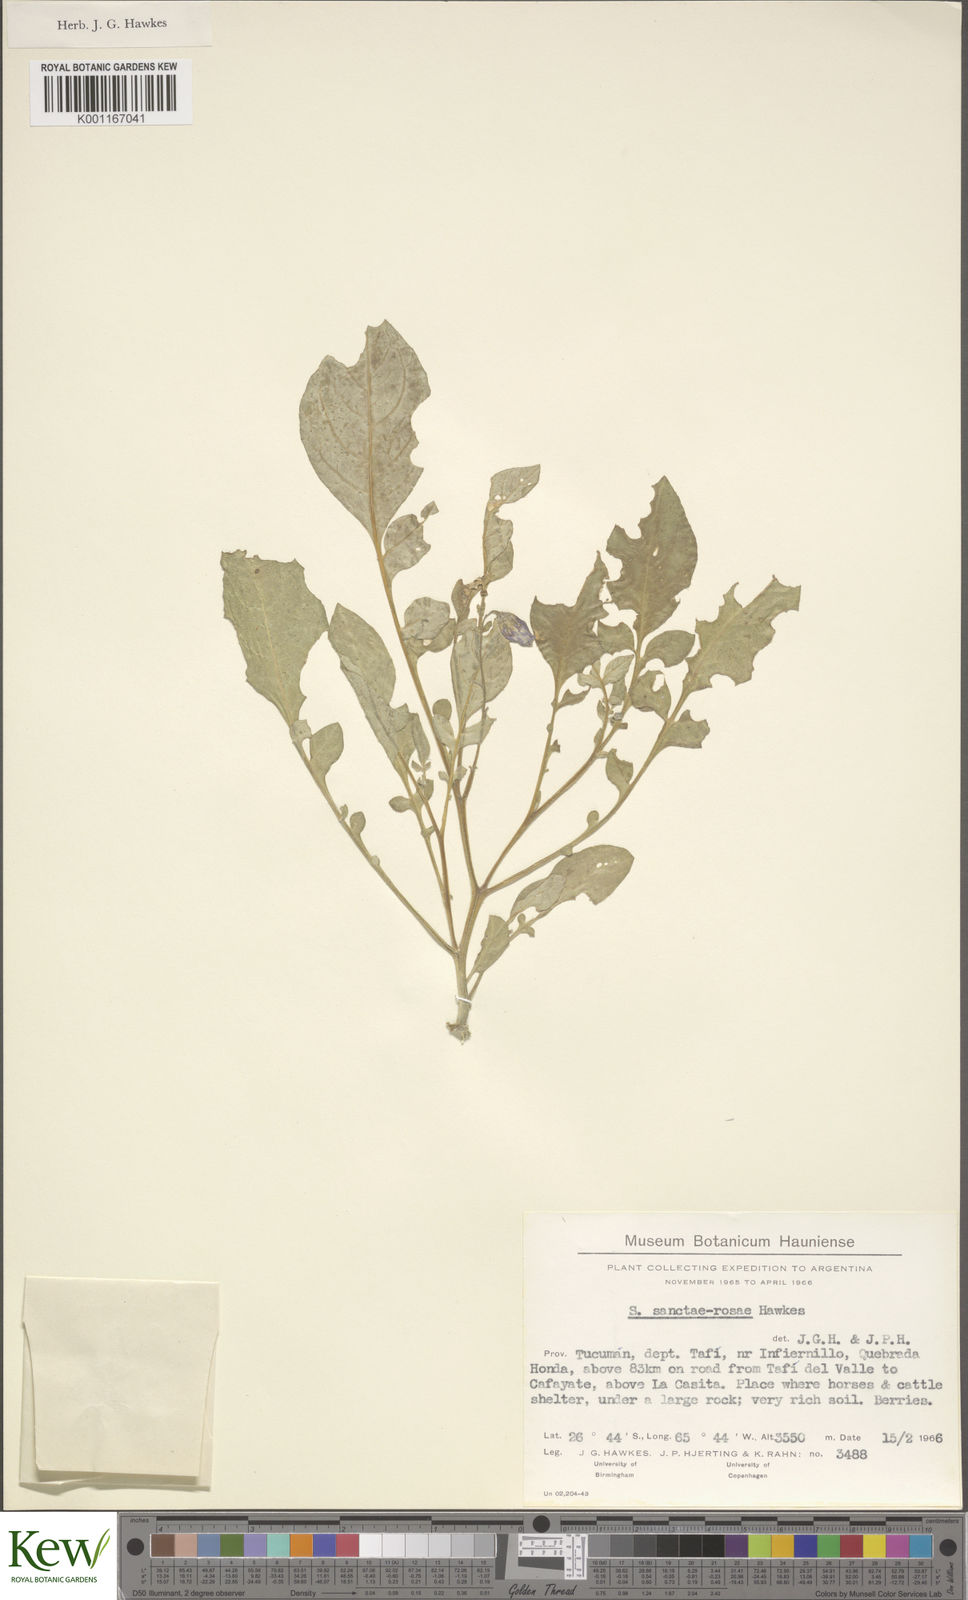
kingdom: Plantae
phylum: Tracheophyta
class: Magnoliopsida
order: Solanales
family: Solanaceae
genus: Solanum
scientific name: Solanum boliviense
